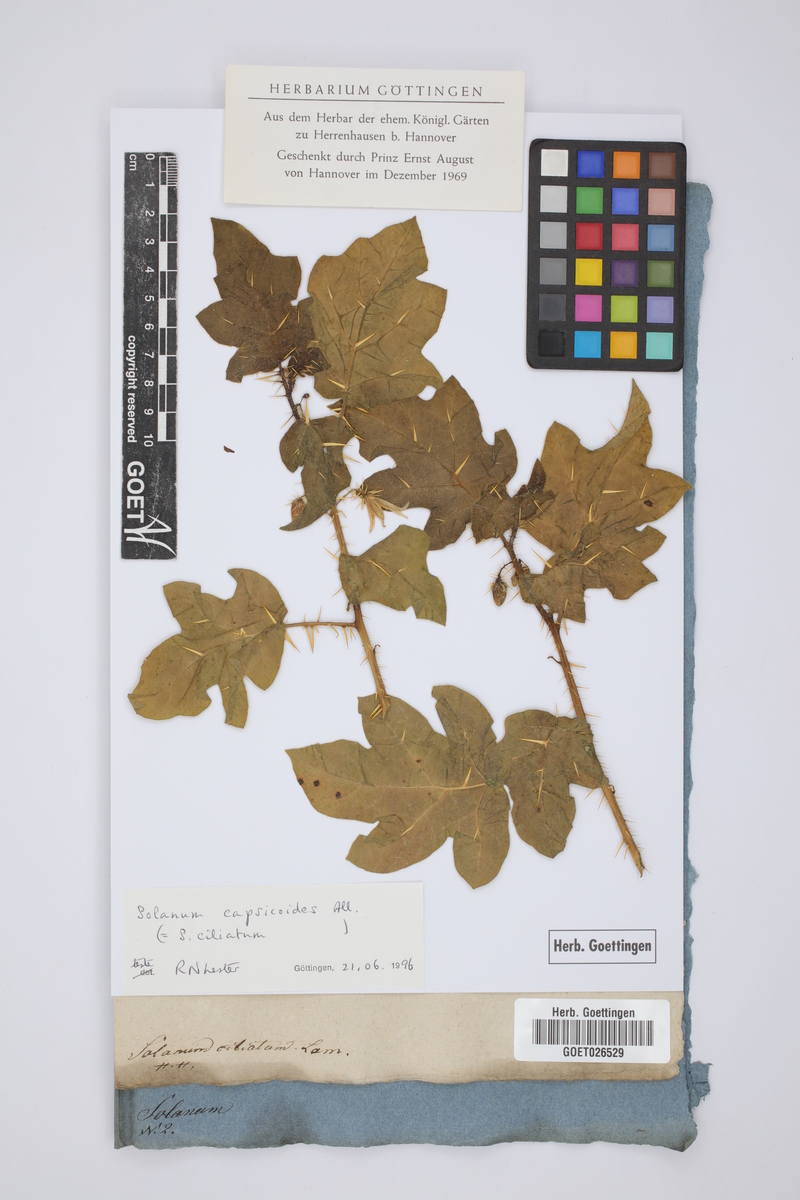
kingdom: Plantae
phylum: Tracheophyta
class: Magnoliopsida
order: Solanales
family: Solanaceae
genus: Solanum
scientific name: Solanum capsicoides
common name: Cockroach berry
